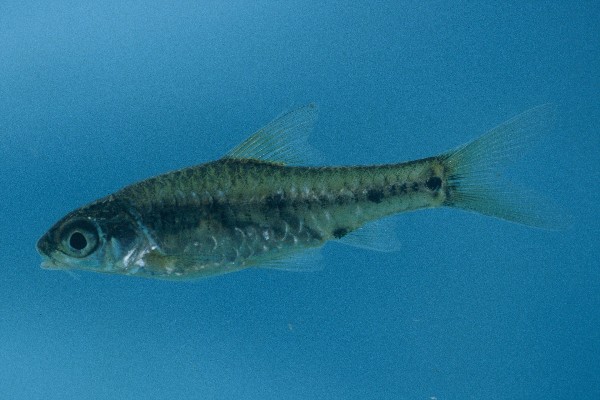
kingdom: Animalia
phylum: Chordata
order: Cypriniformes
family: Cyprinidae
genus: Enteromius
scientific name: Enteromius lineomaculatus
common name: Line-spotted barb
